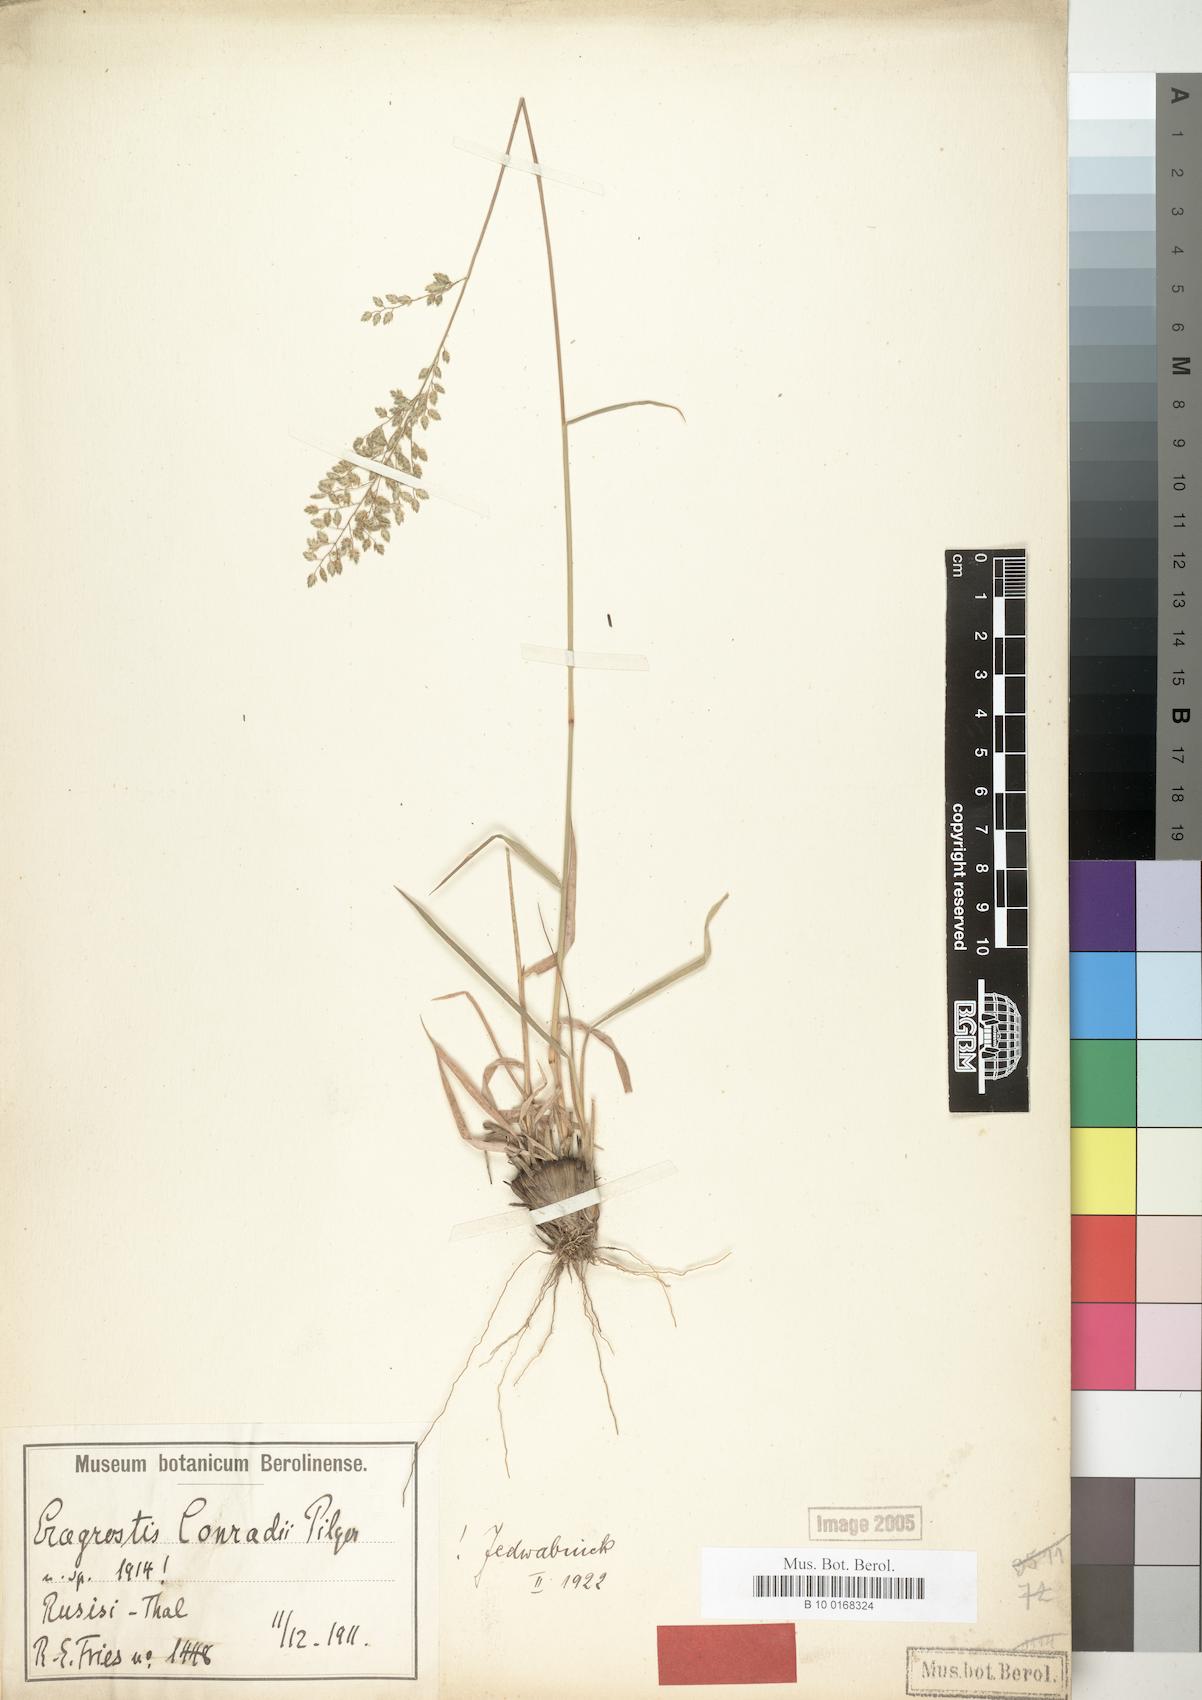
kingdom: Plantae
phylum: Tracheophyta
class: Liliopsida
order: Poales
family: Poaceae
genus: Eragrostis
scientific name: Eragrostis conradii
